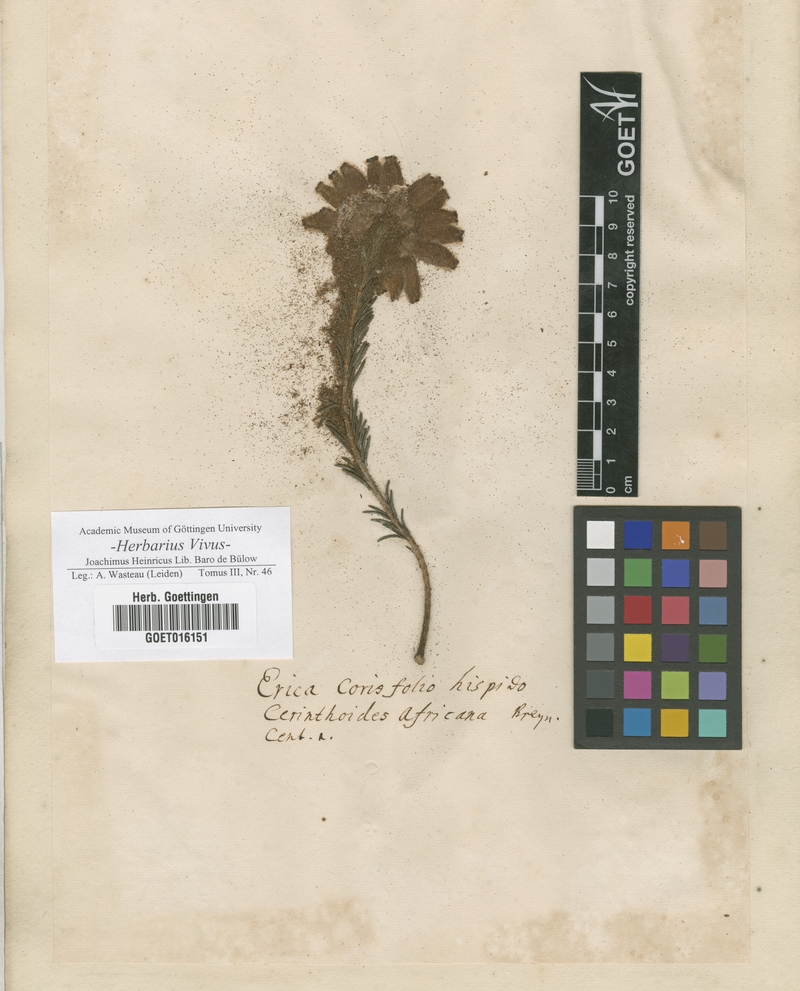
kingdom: Plantae
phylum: Tracheophyta
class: Magnoliopsida
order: Ericales
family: Ericaceae
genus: Erica
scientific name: Erica
